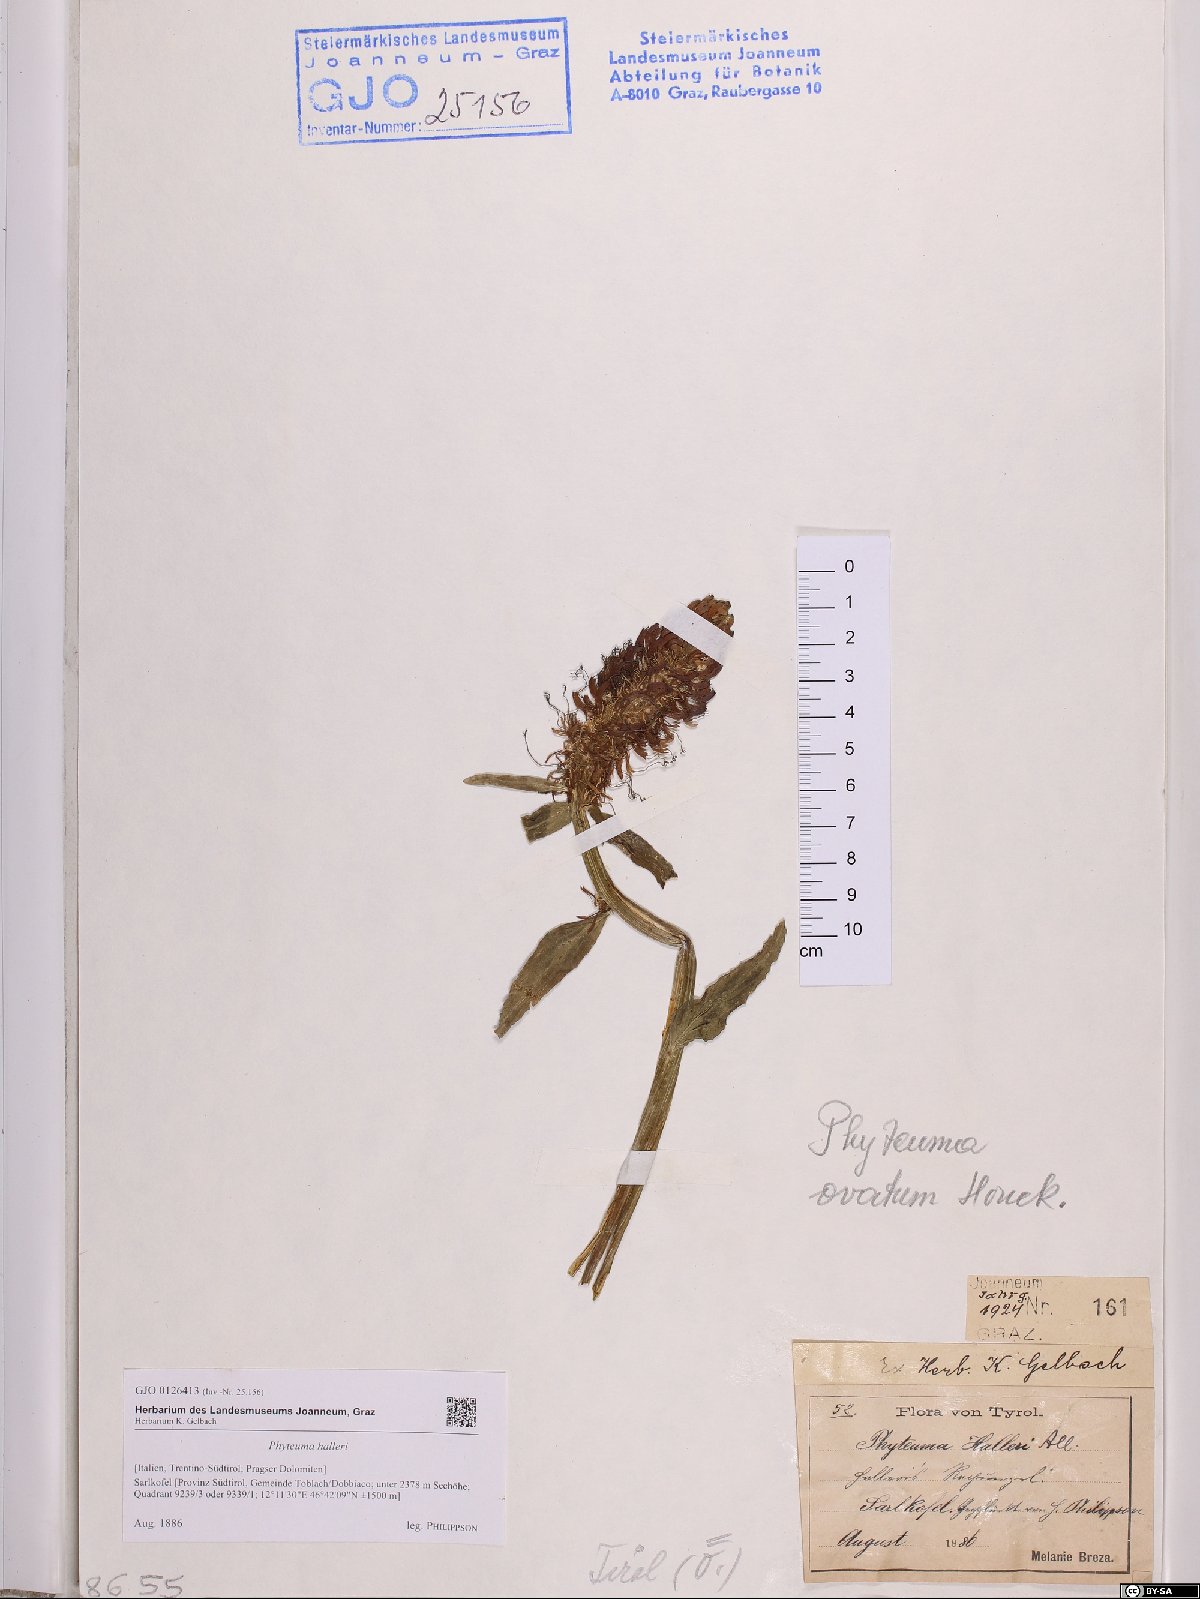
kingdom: Plantae
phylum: Tracheophyta
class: Magnoliopsida
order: Asterales
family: Campanulaceae
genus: Phyteuma
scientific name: Phyteuma ovatum
